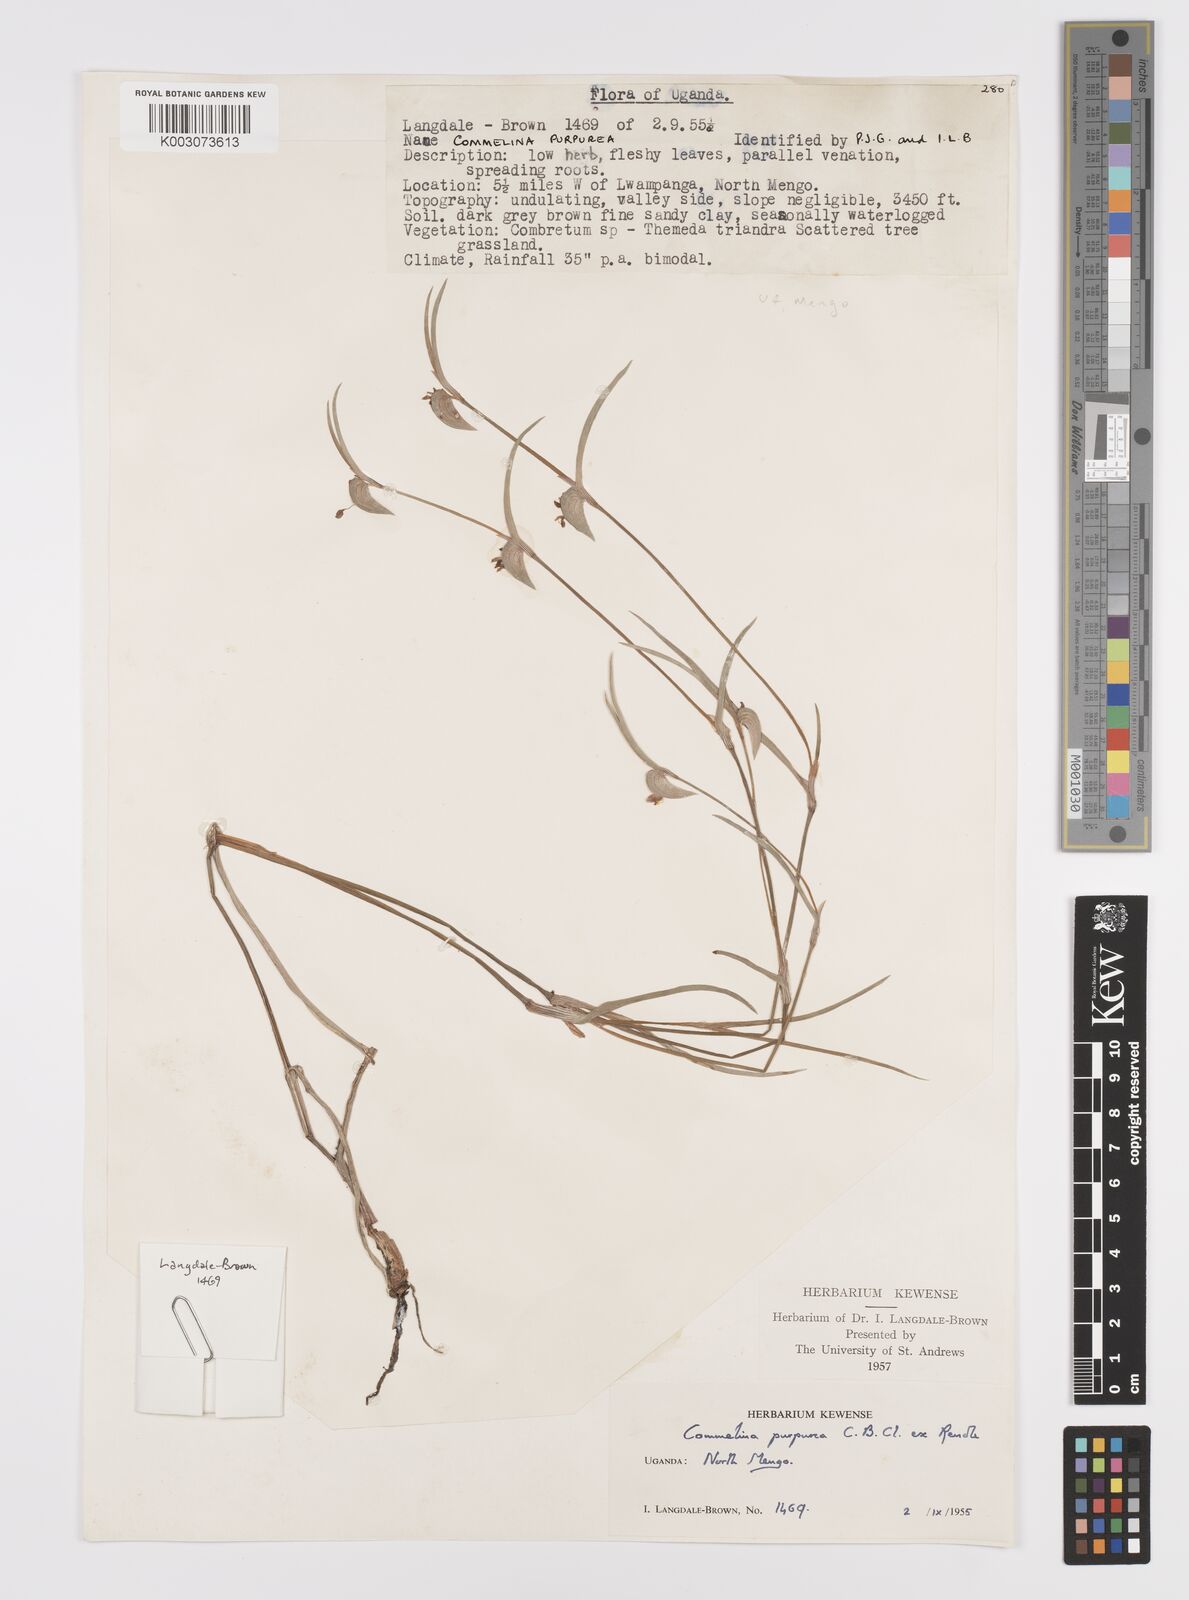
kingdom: Plantae
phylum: Tracheophyta
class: Liliopsida
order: Commelinales
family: Commelinaceae
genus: Commelina
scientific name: Commelina purpurea
